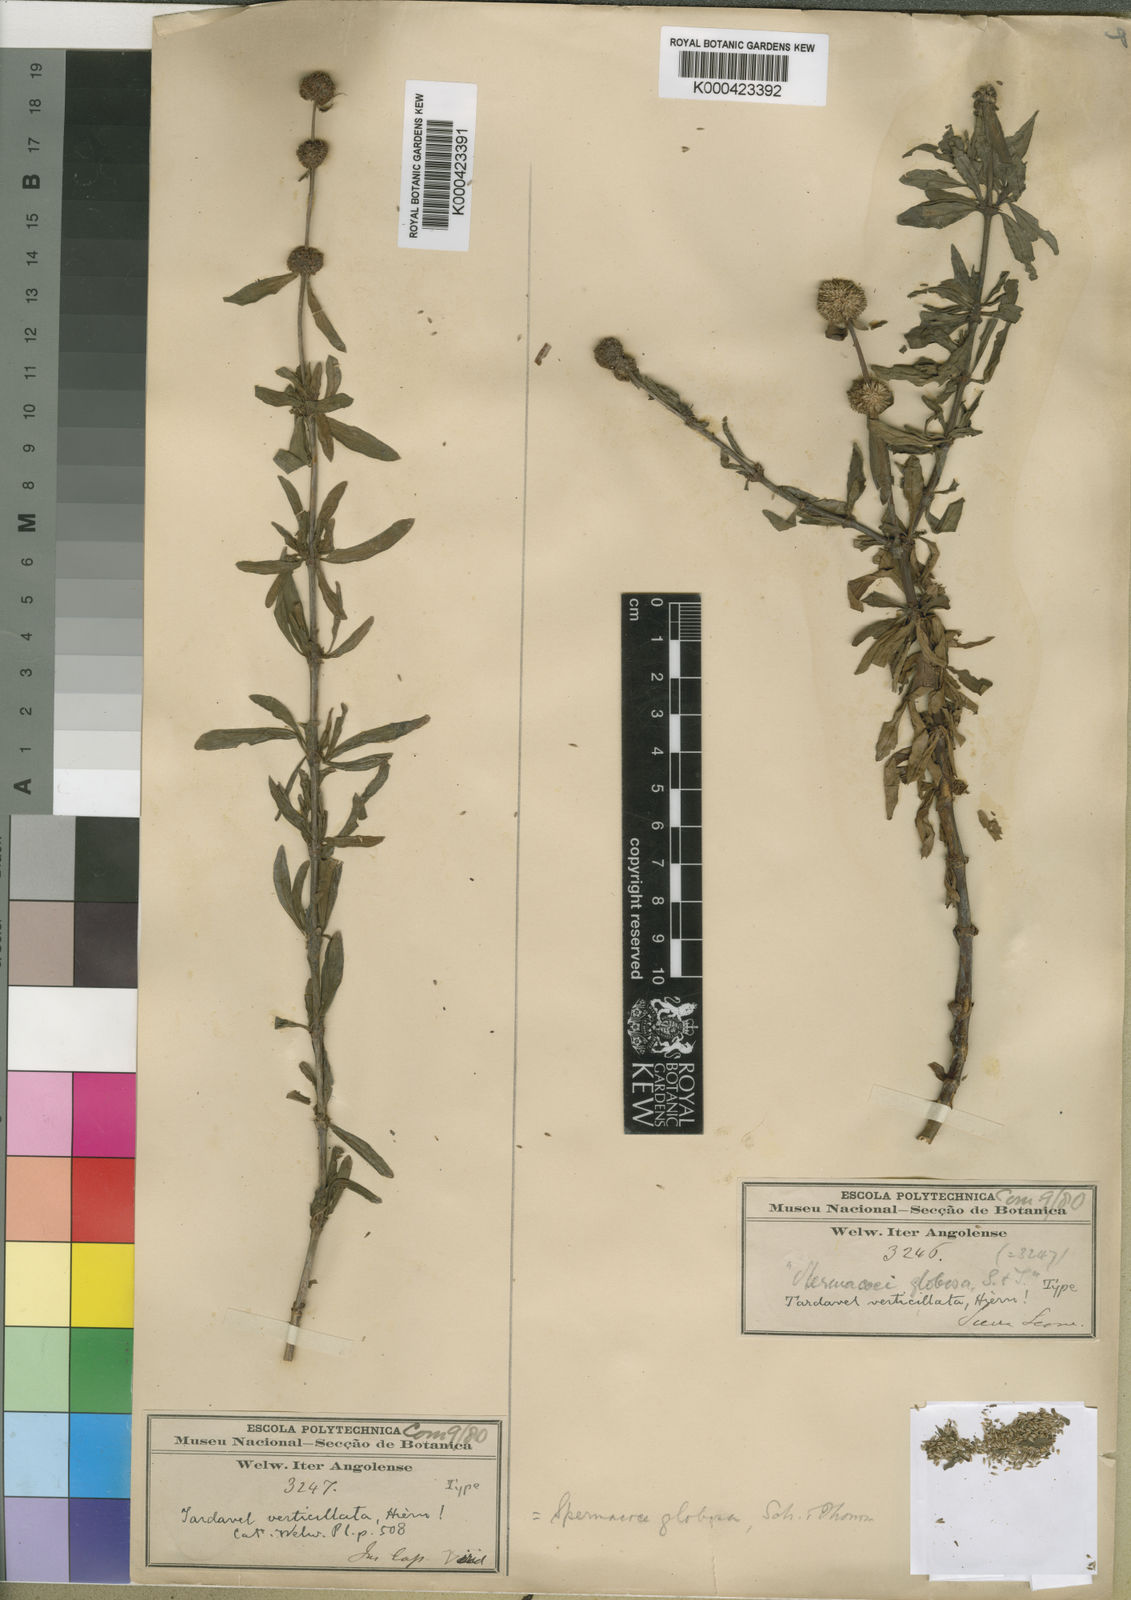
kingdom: Plantae
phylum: Tracheophyta
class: Magnoliopsida
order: Gentianales
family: Rubiaceae
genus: Spermacoce
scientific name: Spermacoce verticillata
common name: Shrubby false buttonweed
